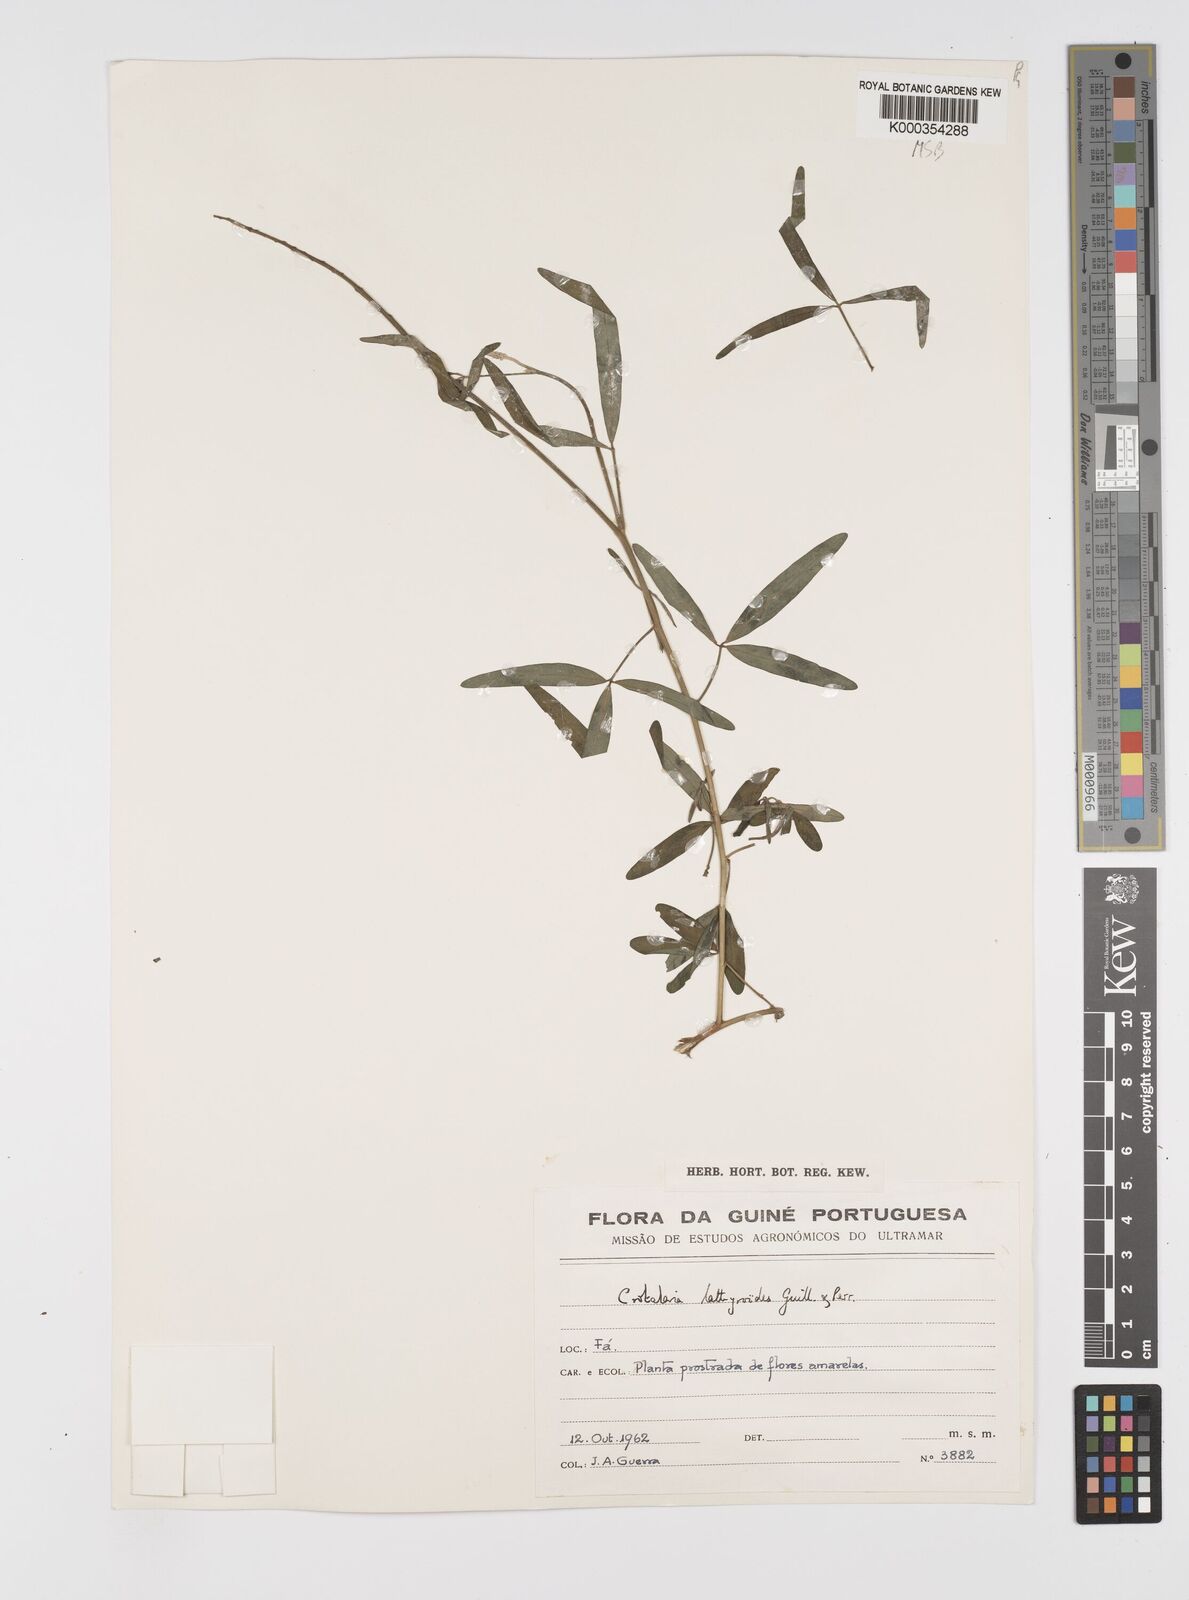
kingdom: Plantae
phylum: Tracheophyta
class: Magnoliopsida
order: Fabales
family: Fabaceae
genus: Crotalaria
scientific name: Crotalaria lathyroides
